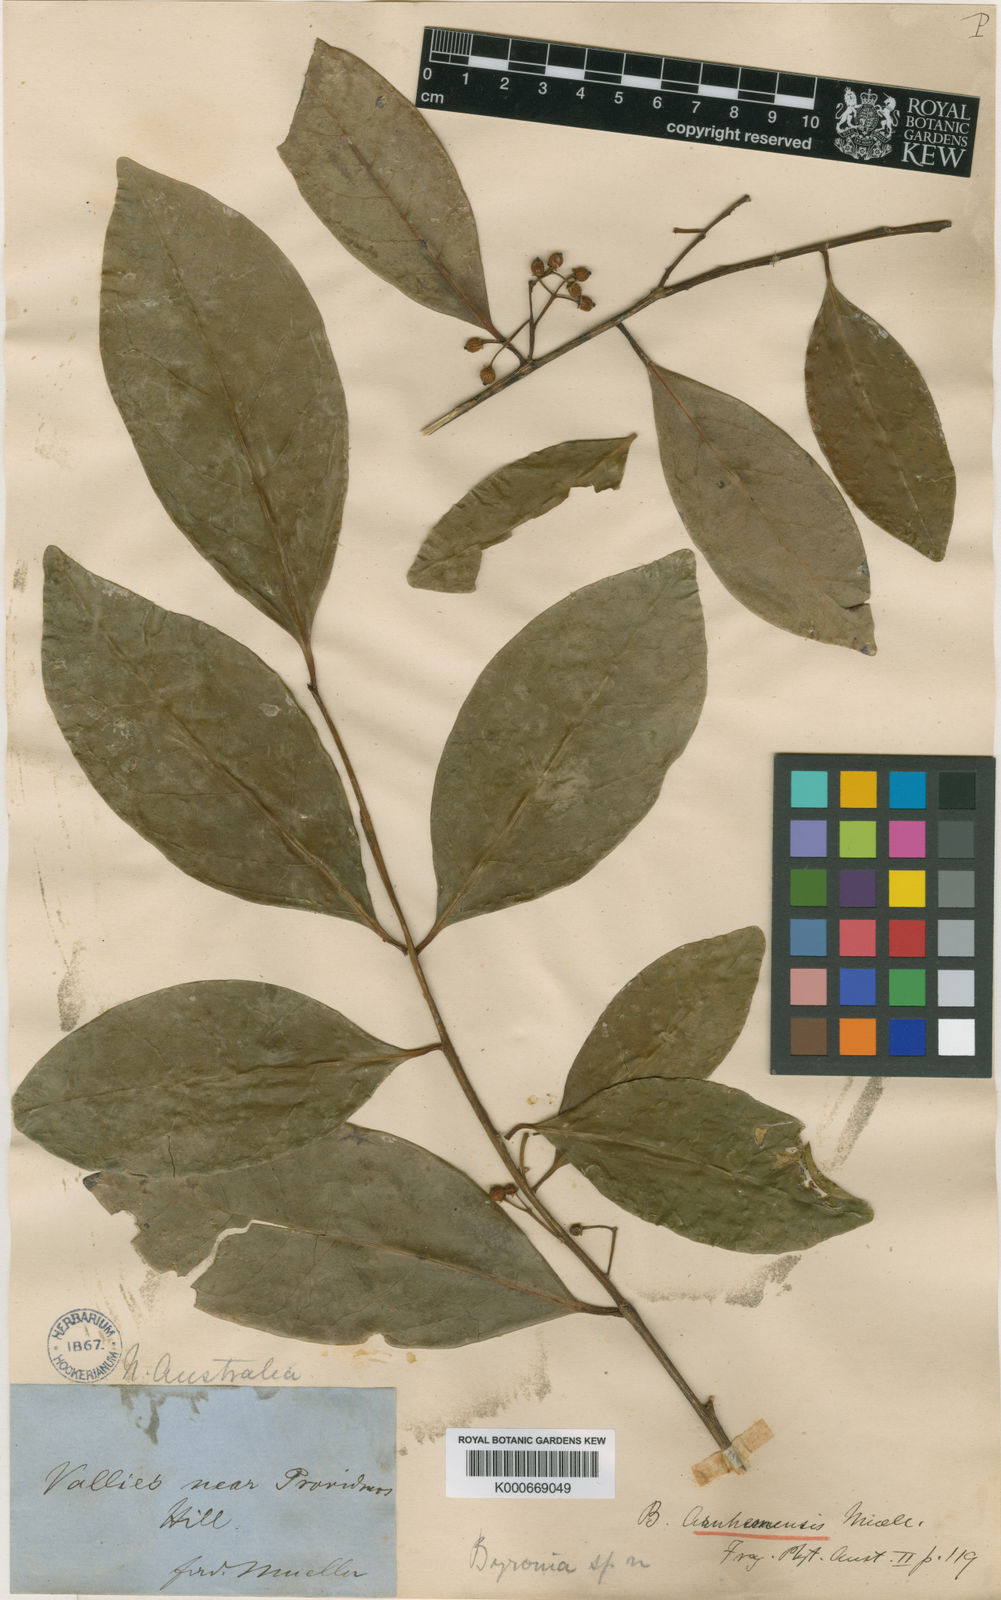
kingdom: Plantae
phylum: Tracheophyta
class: Magnoliopsida
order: Aquifoliales
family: Aquifoliaceae
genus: Ilex
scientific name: Ilex arnhemensis
